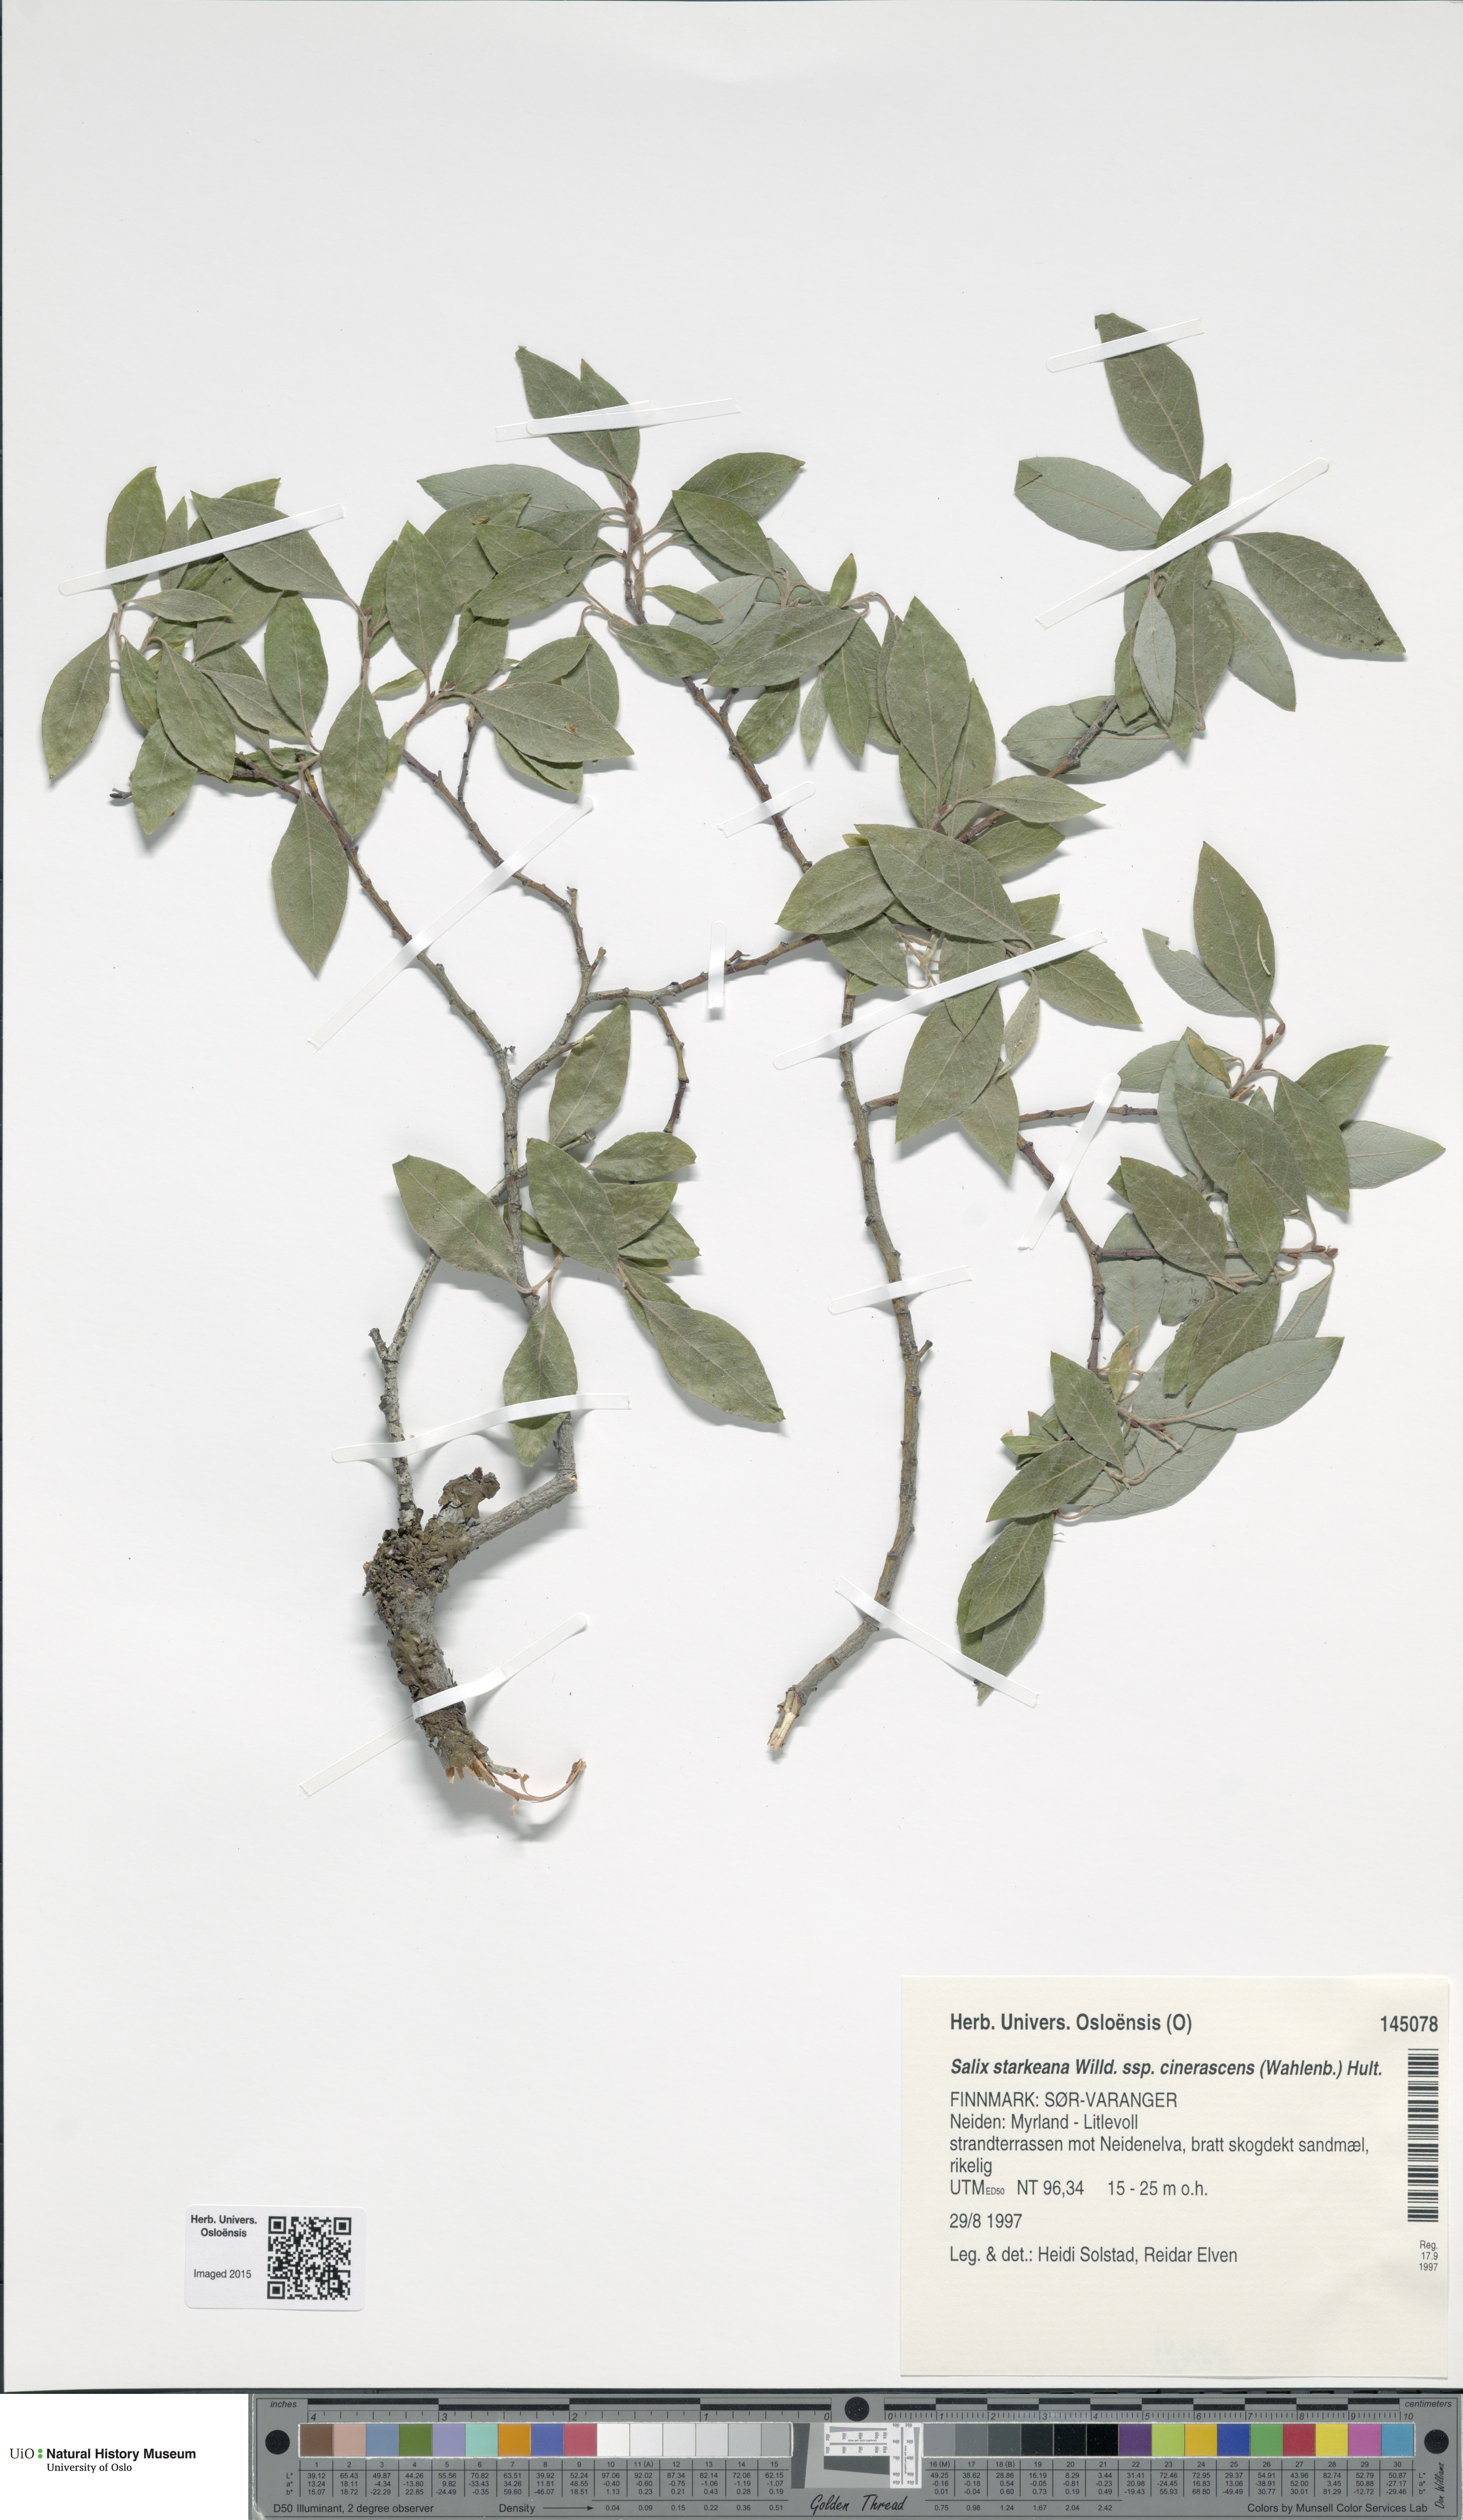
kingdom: Plantae
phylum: Tracheophyta
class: Magnoliopsida
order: Malpighiales
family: Salicaceae
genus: Salix
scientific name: Salix bebbiana
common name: Bebb's willow
